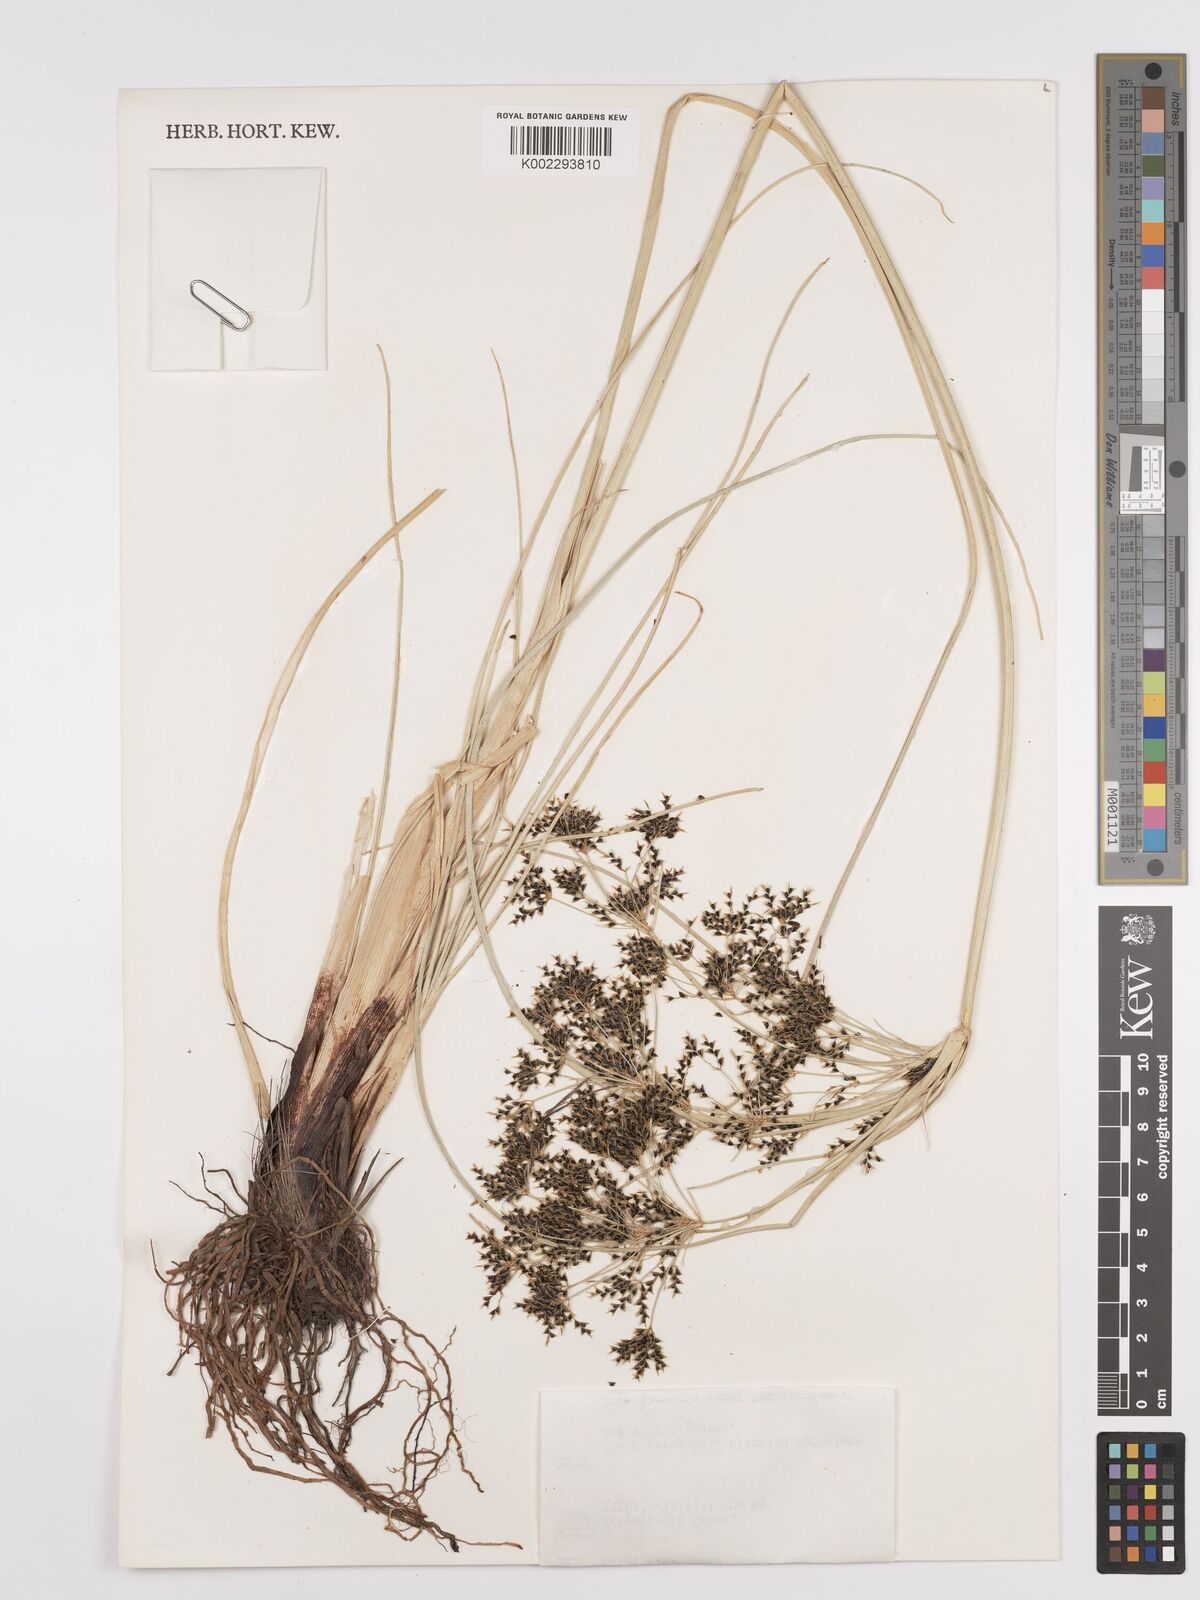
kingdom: Plantae
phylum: Tracheophyta
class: Liliopsida
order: Poales
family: Cyperaceae
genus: Cyperus
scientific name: Cyperus ixiocarpus
